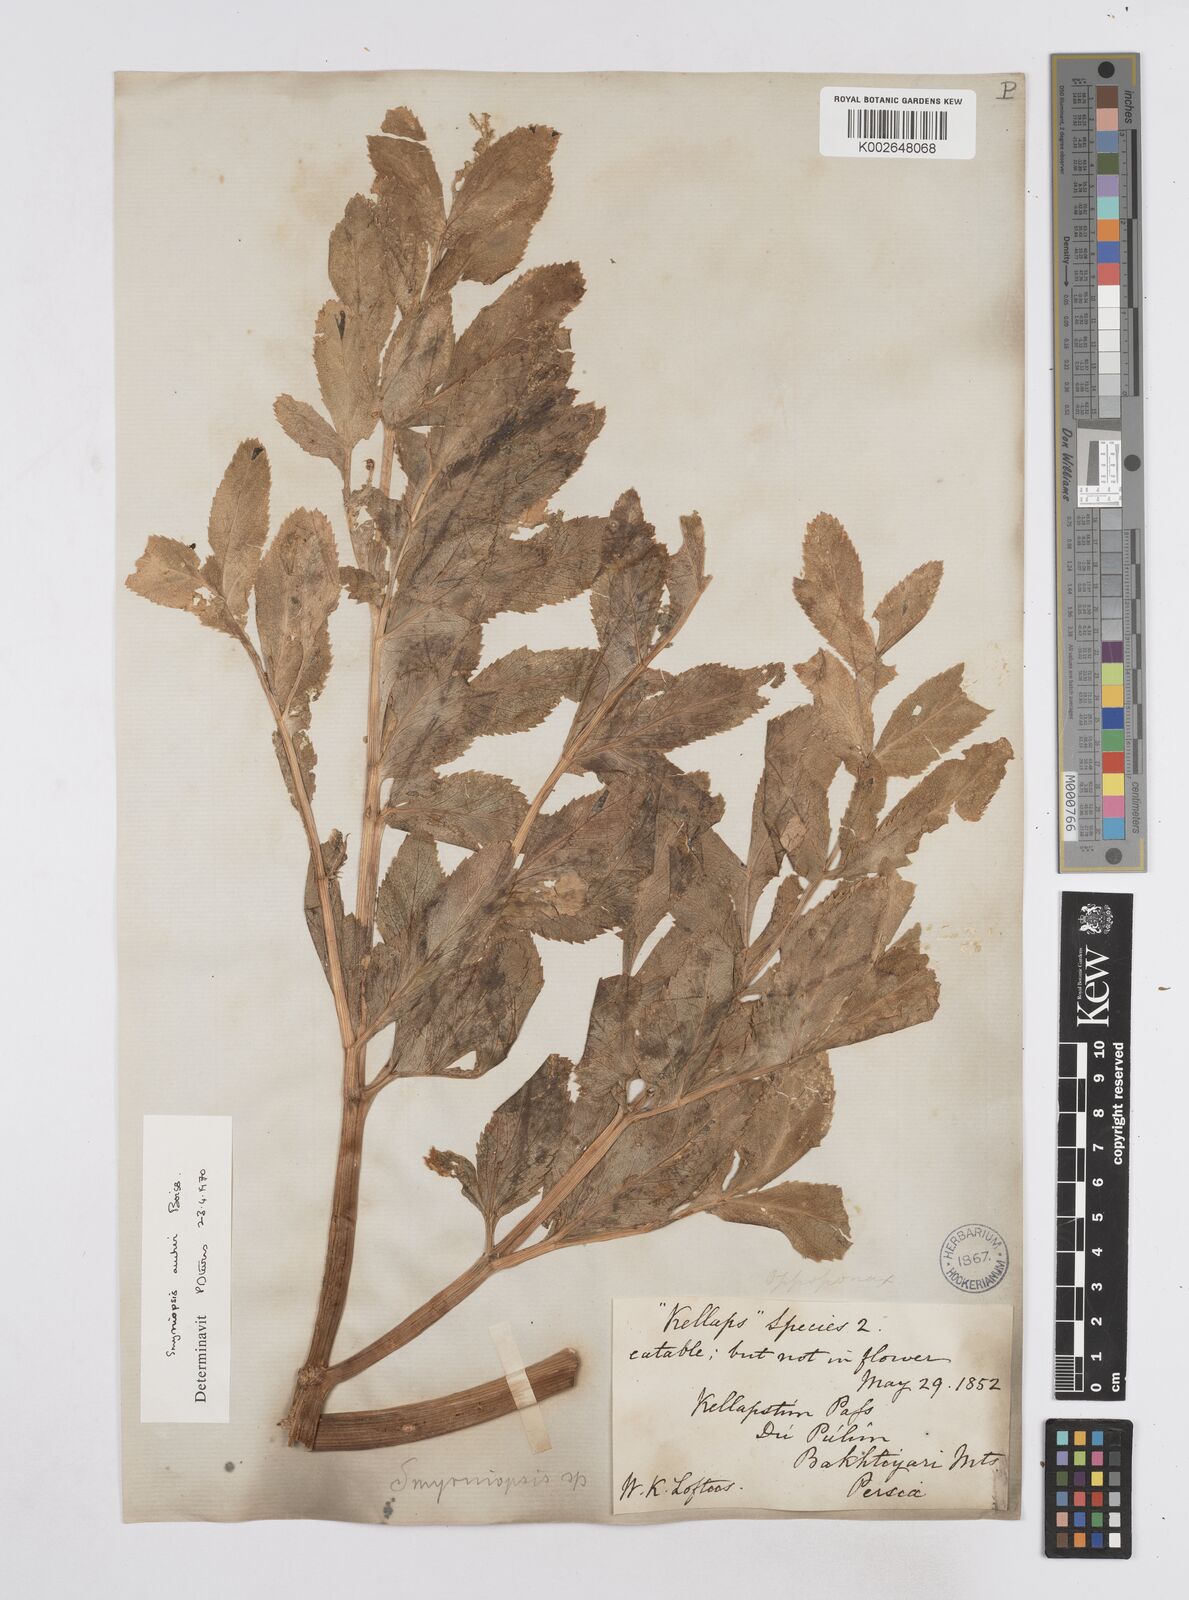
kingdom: Plantae
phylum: Tracheophyta
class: Magnoliopsida
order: Apiales
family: Apiaceae
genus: Smyrniopsis
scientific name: Smyrniopsis aucheri
